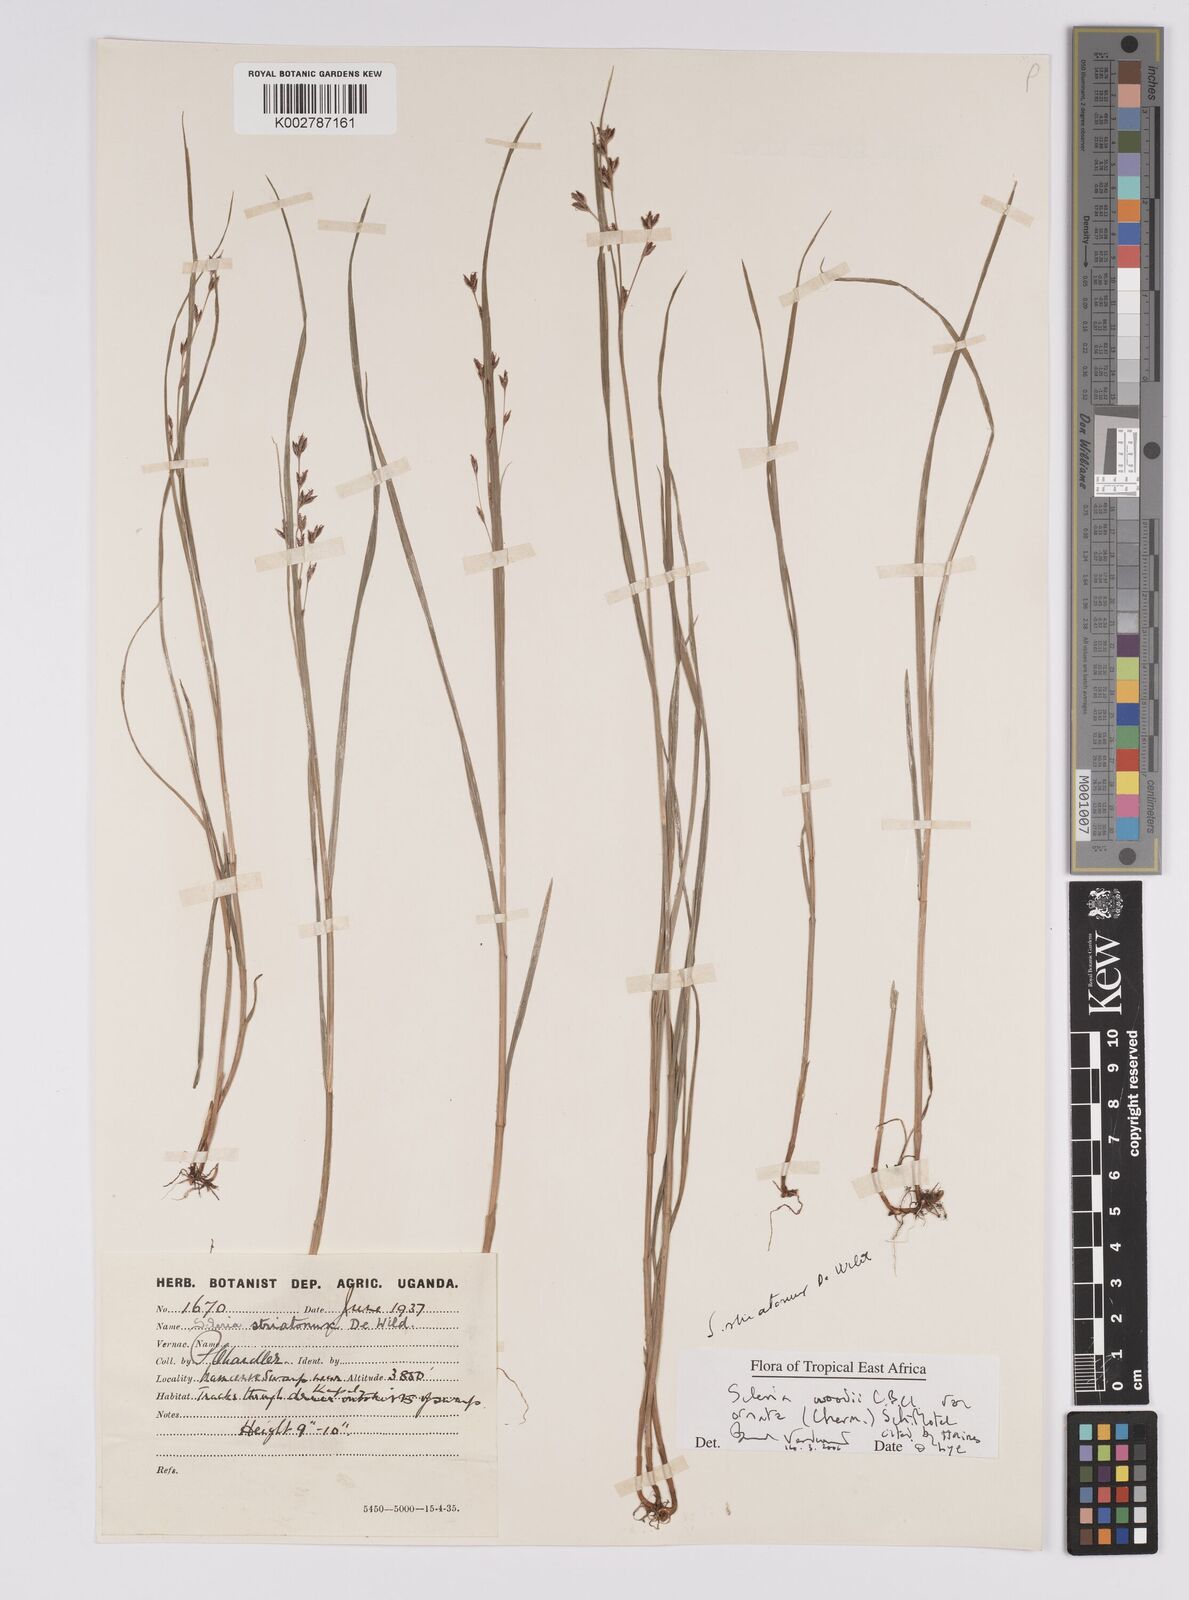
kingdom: Plantae
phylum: Tracheophyta
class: Liliopsida
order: Poales
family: Cyperaceae
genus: Scleria
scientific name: Scleria woodii
